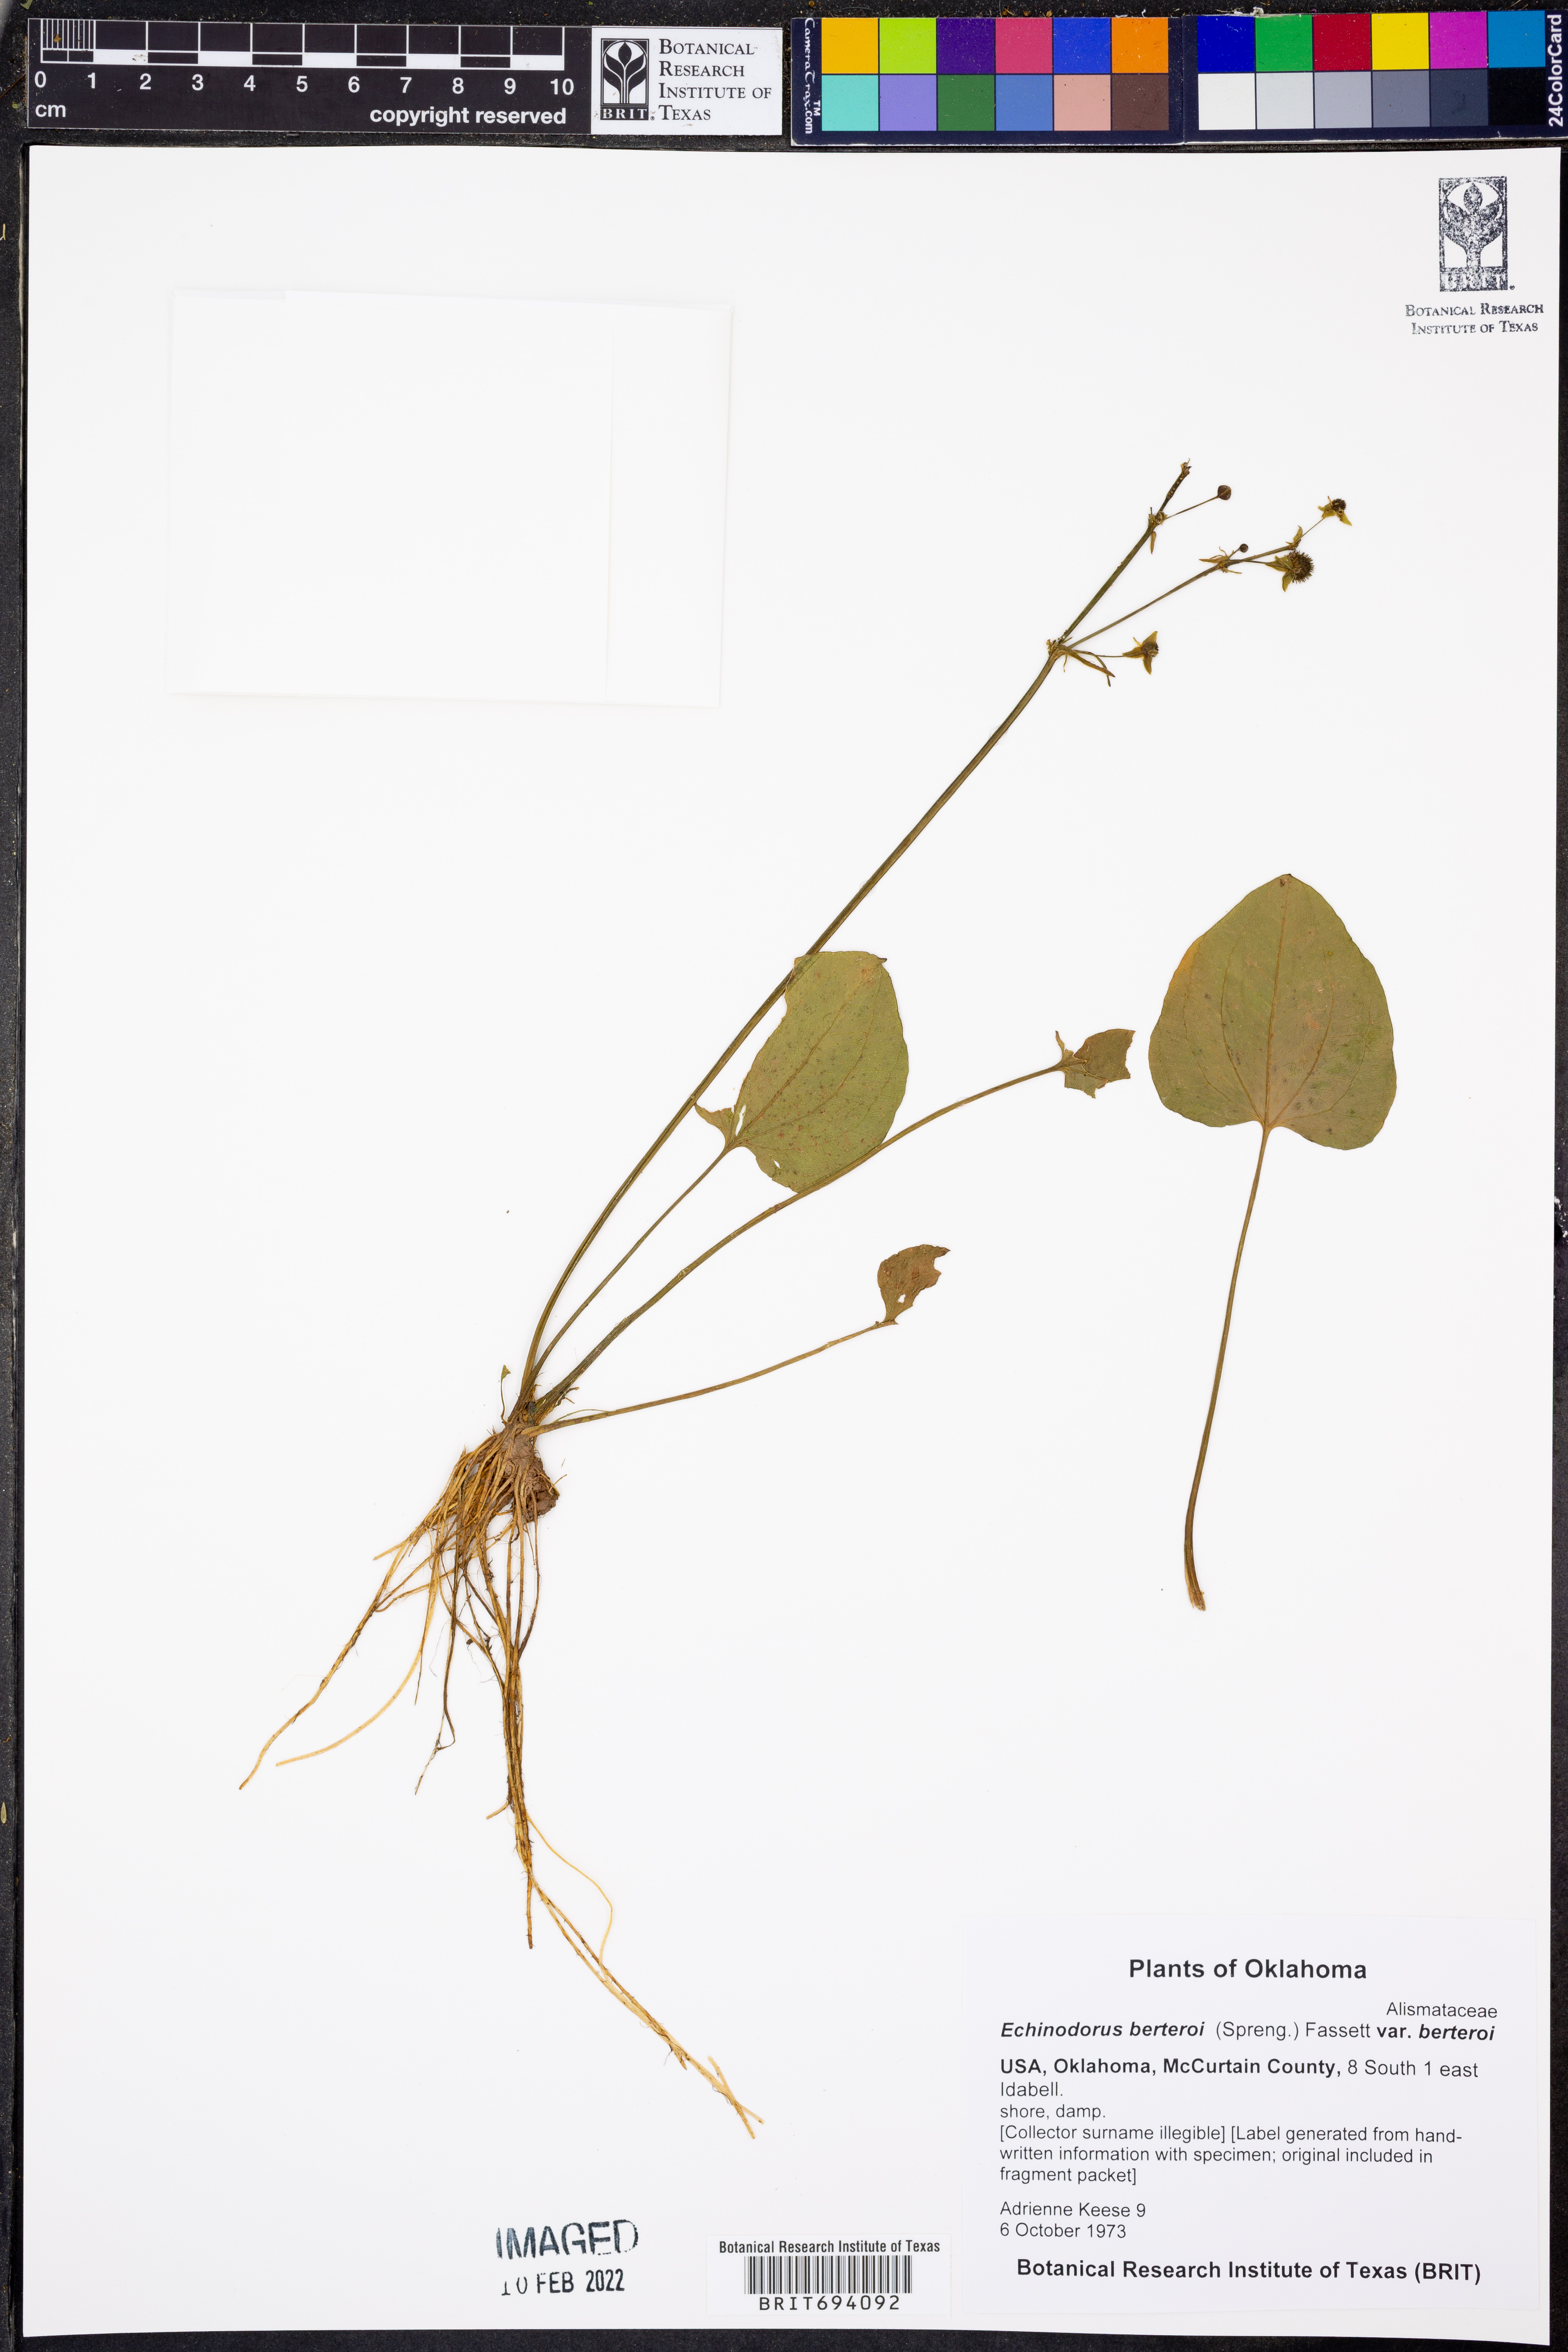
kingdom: Plantae
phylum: Tracheophyta
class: Liliopsida
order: Alismatales
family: Alismataceae
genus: Echinodorus
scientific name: Echinodorus berteroi
